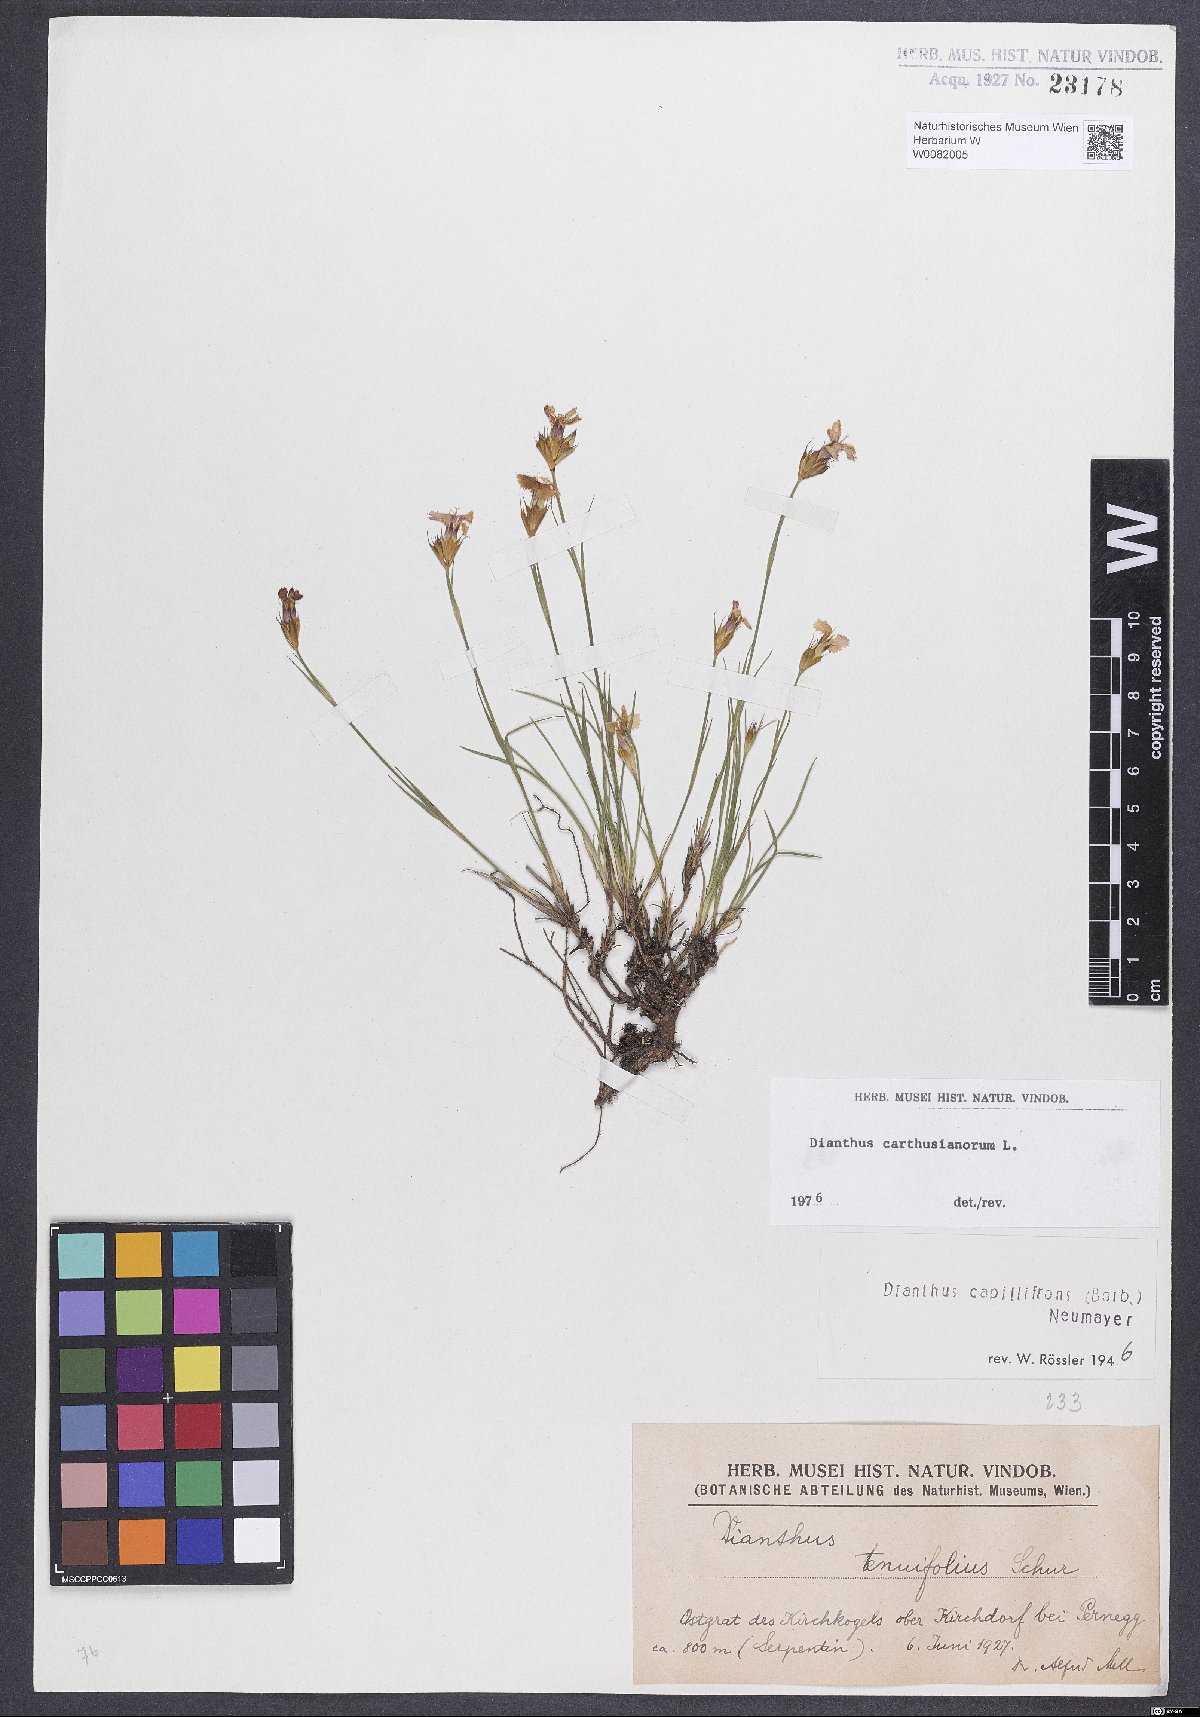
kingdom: Plantae
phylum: Tracheophyta
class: Magnoliopsida
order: Caryophyllales
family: Caryophyllaceae
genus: Dianthus
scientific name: Dianthus carthusianorum
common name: Carthusian pink
